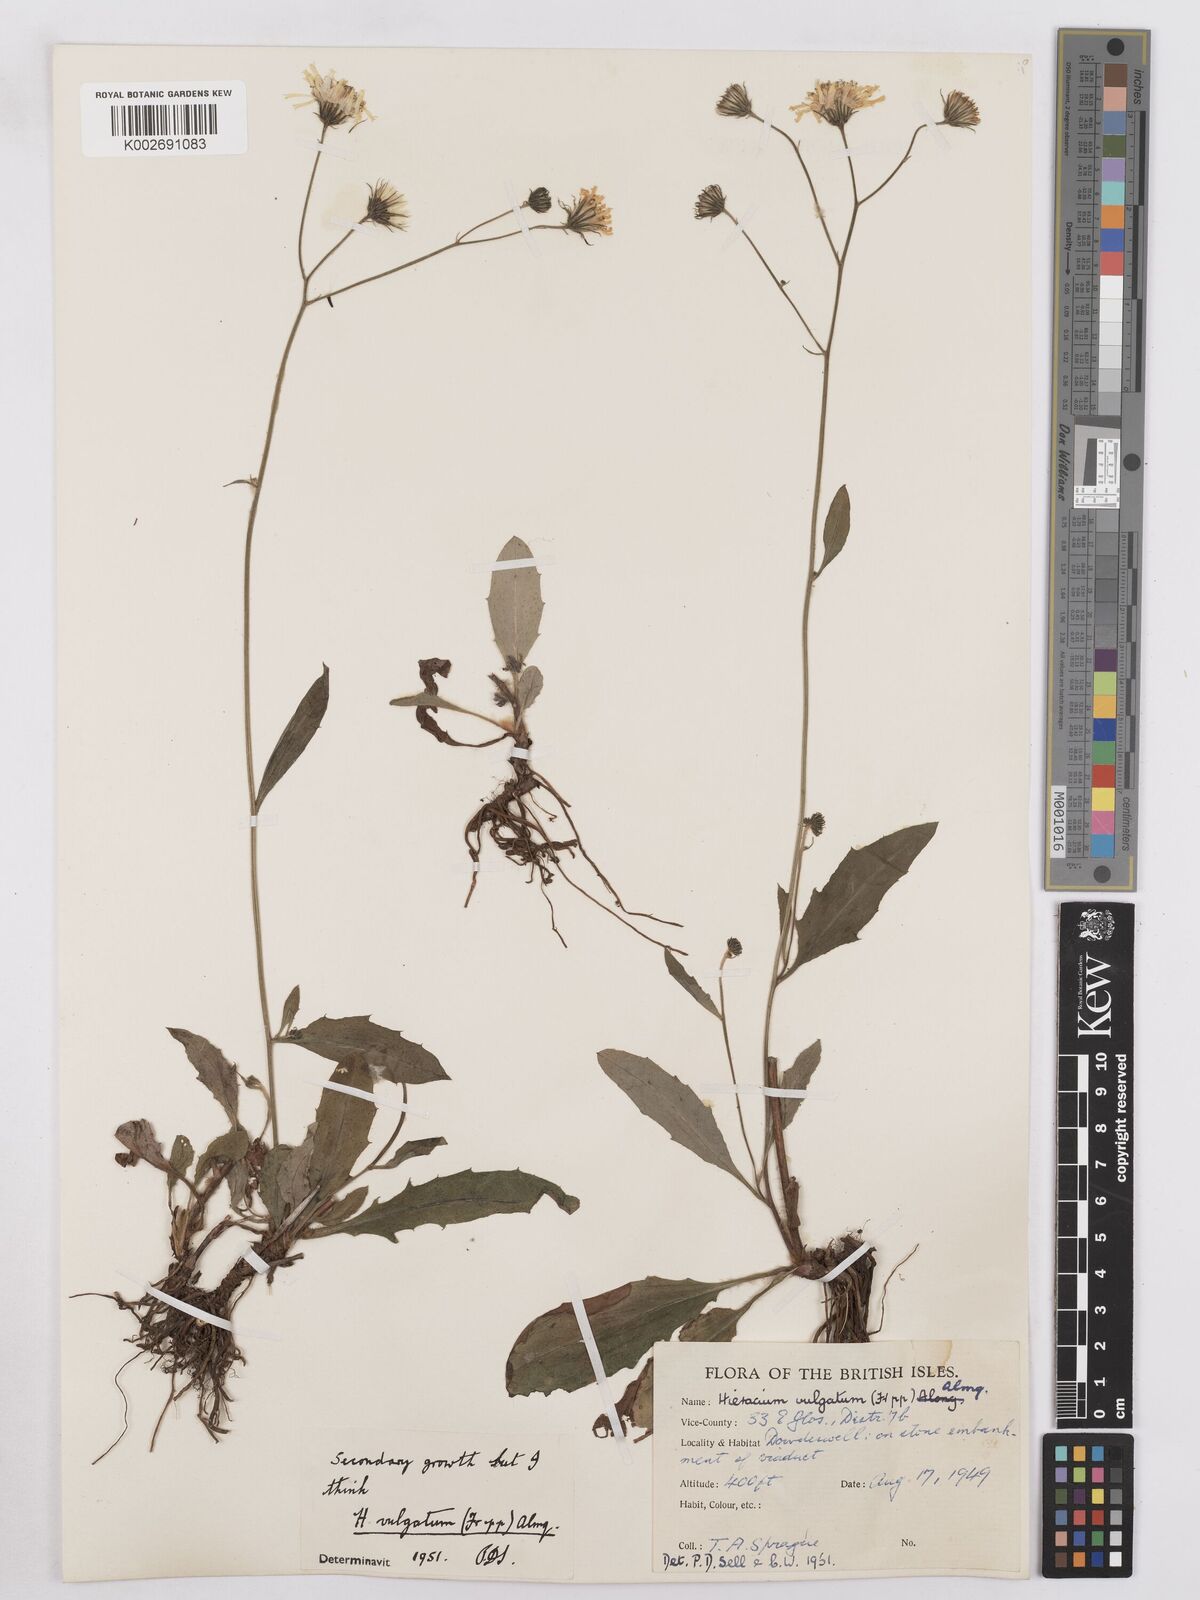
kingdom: Plantae
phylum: Tracheophyta
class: Magnoliopsida
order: Asterales
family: Asteraceae
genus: Hieracium
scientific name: Hieracium lachenalii
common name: Common hawkweed
